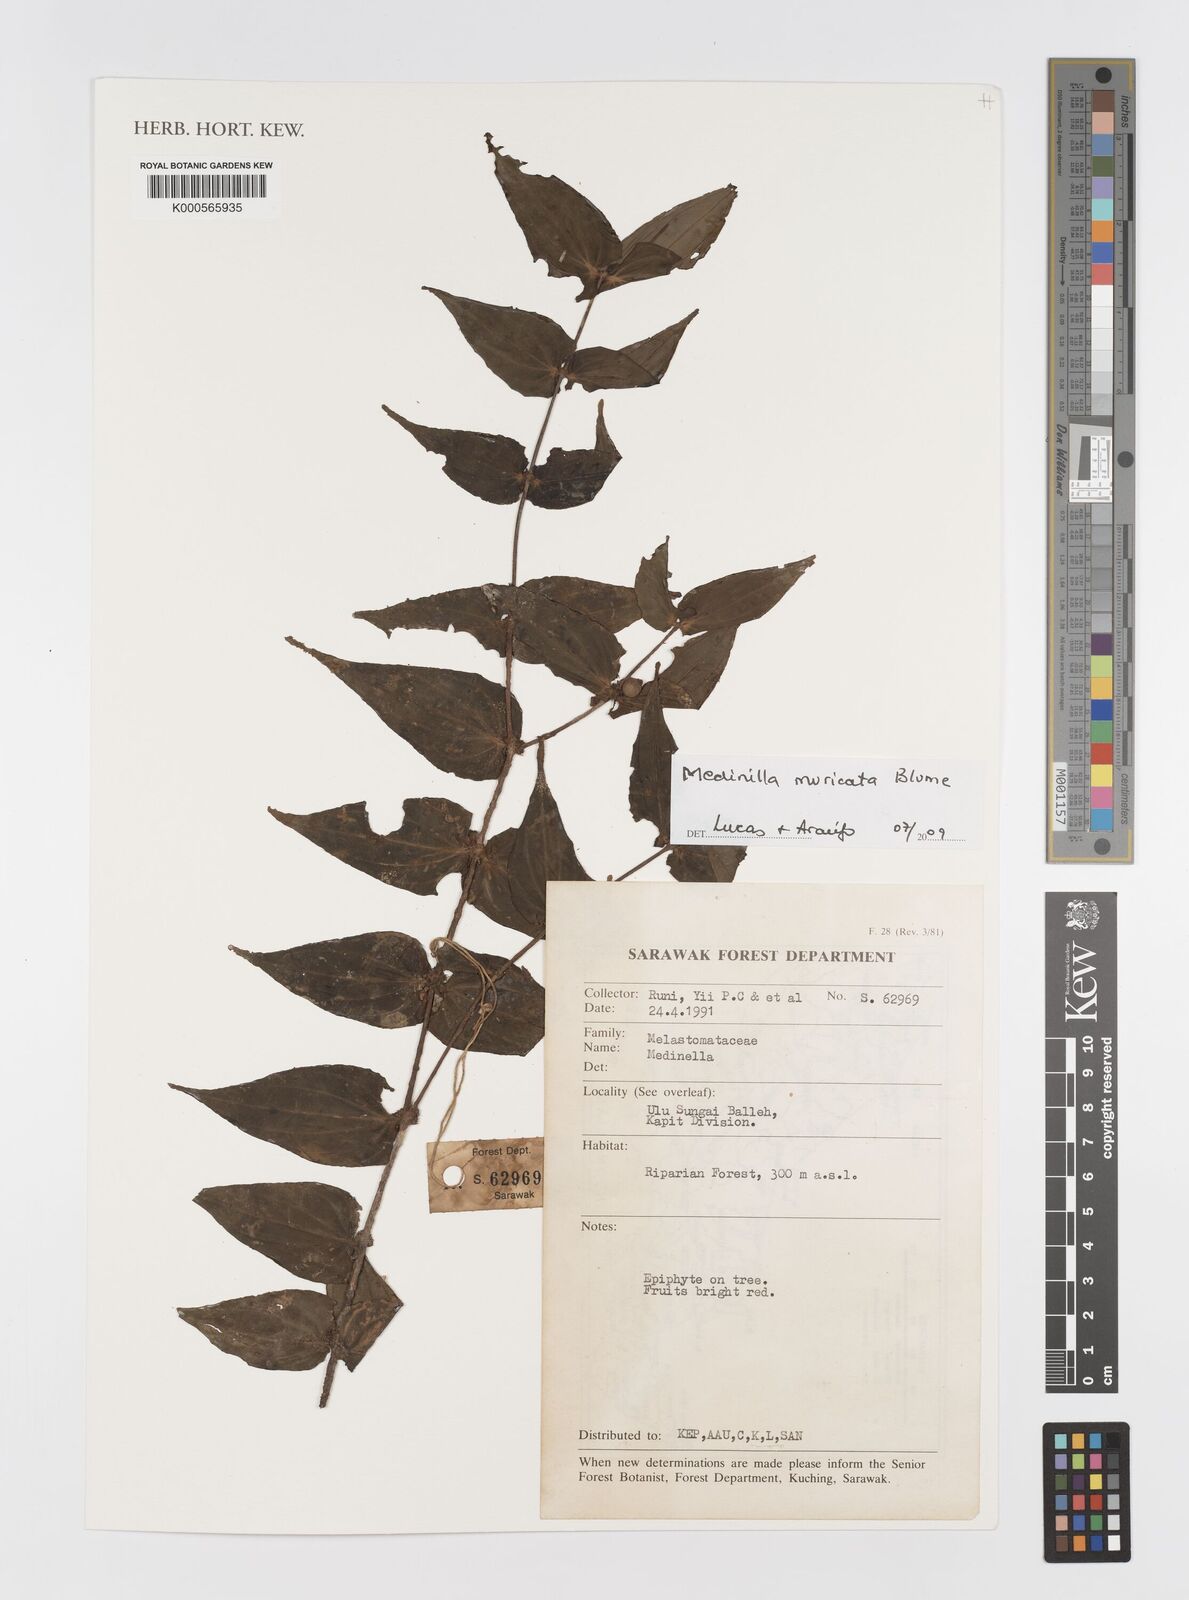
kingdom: Plantae
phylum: Tracheophyta
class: Magnoliopsida
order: Myrtales
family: Melastomataceae
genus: Medinilla
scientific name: Medinilla muricata
